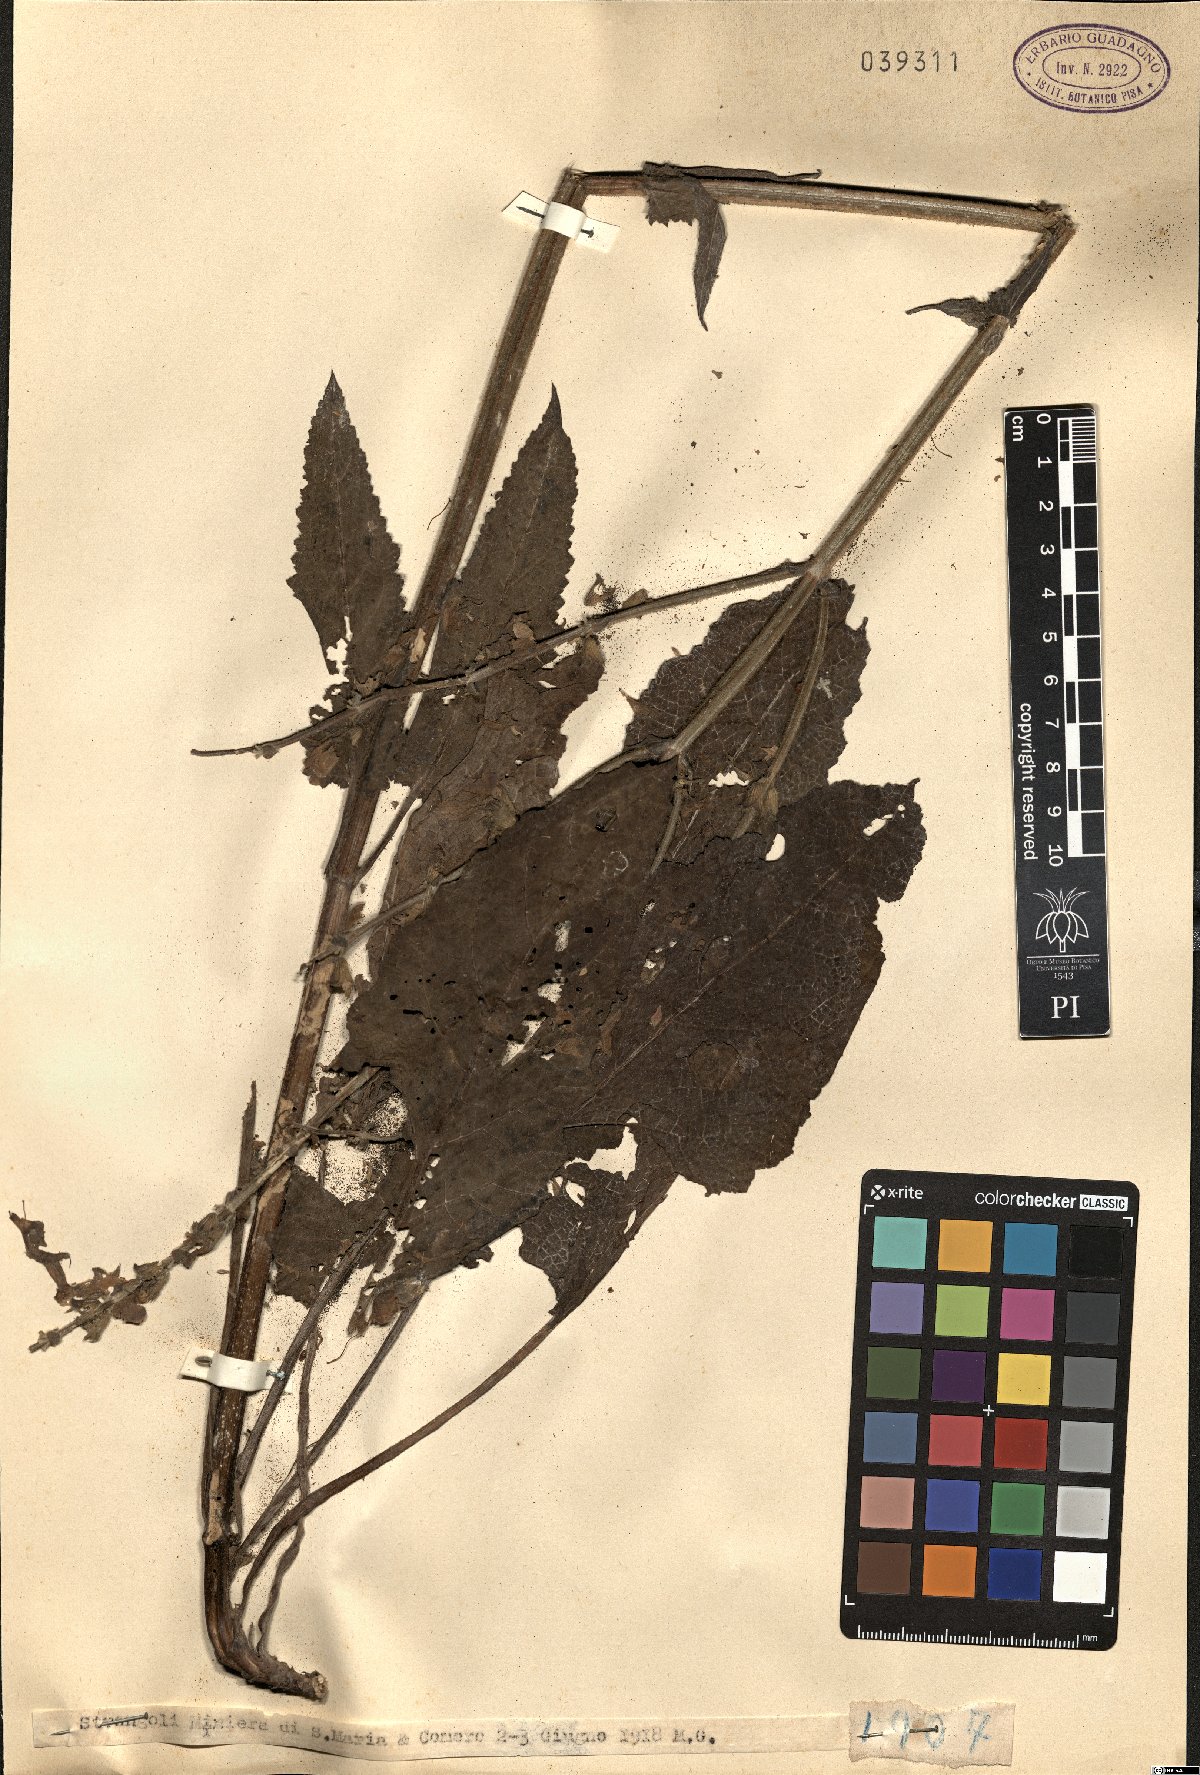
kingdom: Plantae
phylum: Tracheophyta
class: Magnoliopsida
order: Lamiales
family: Lamiaceae
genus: Salvia
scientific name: Salvia
